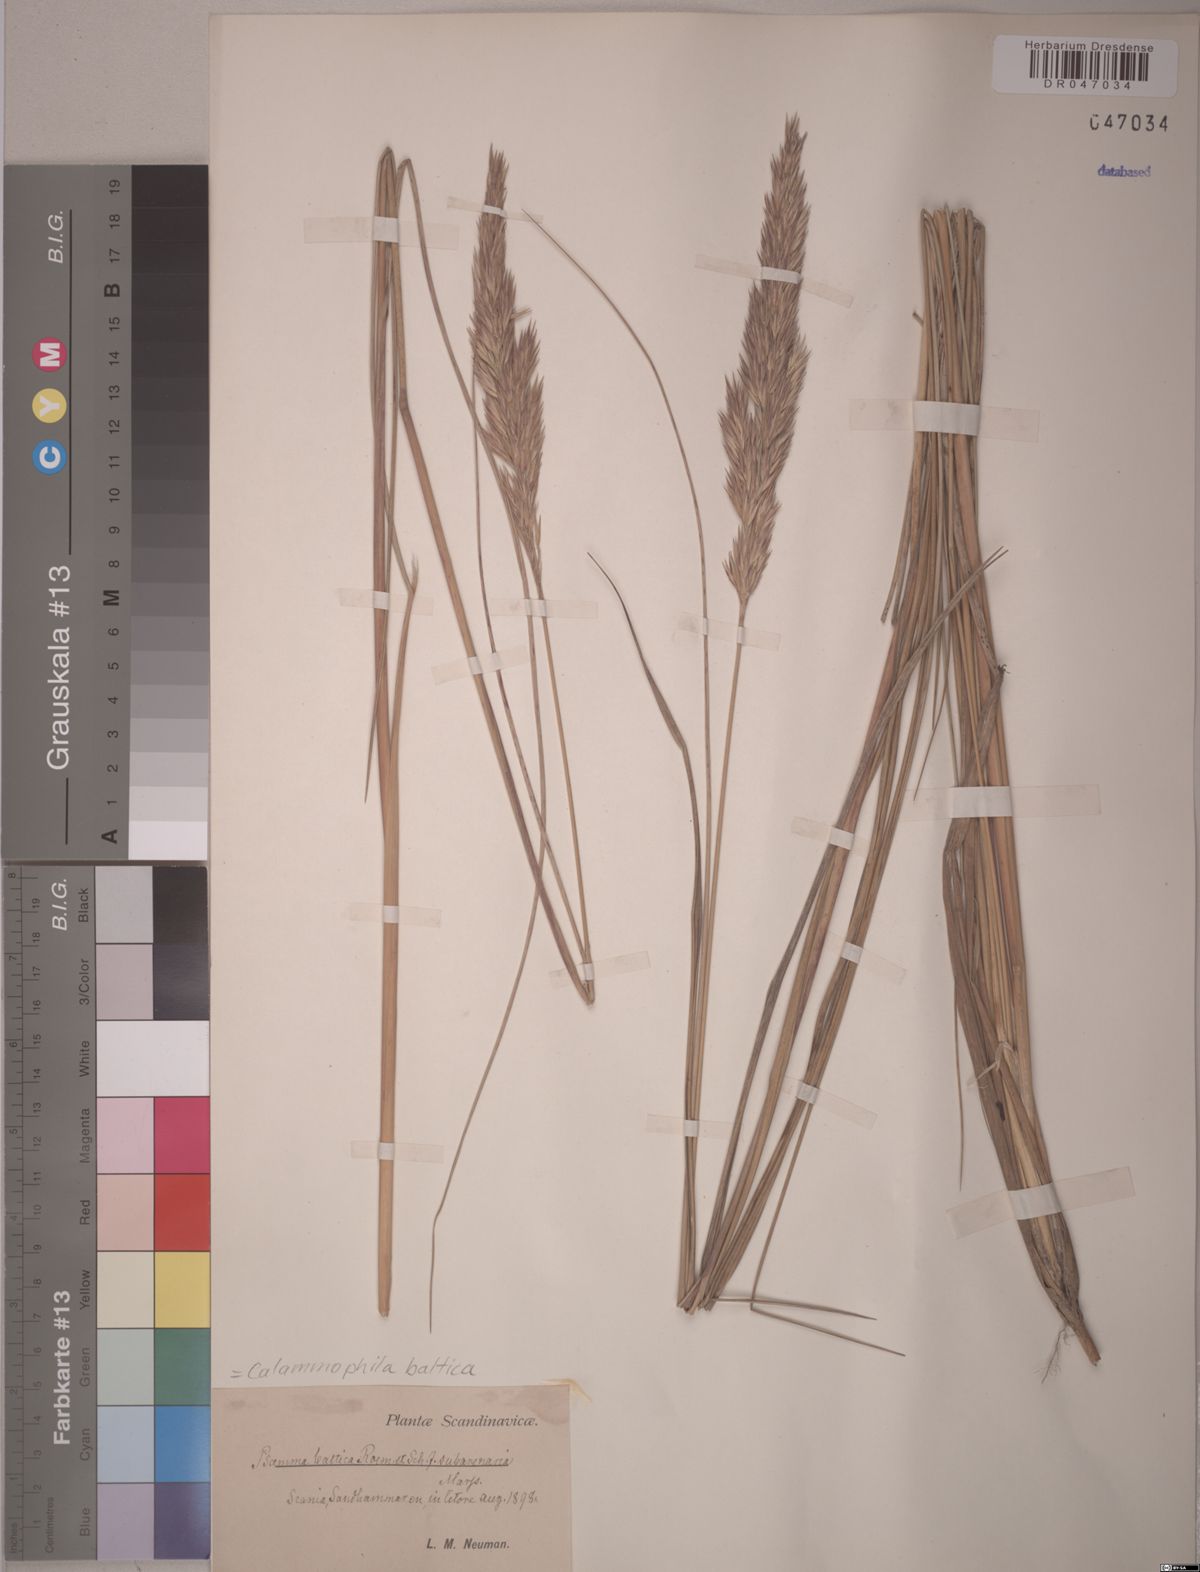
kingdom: Plantae
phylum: Tracheophyta
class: Liliopsida
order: Poales
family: Poaceae
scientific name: Poaceae
